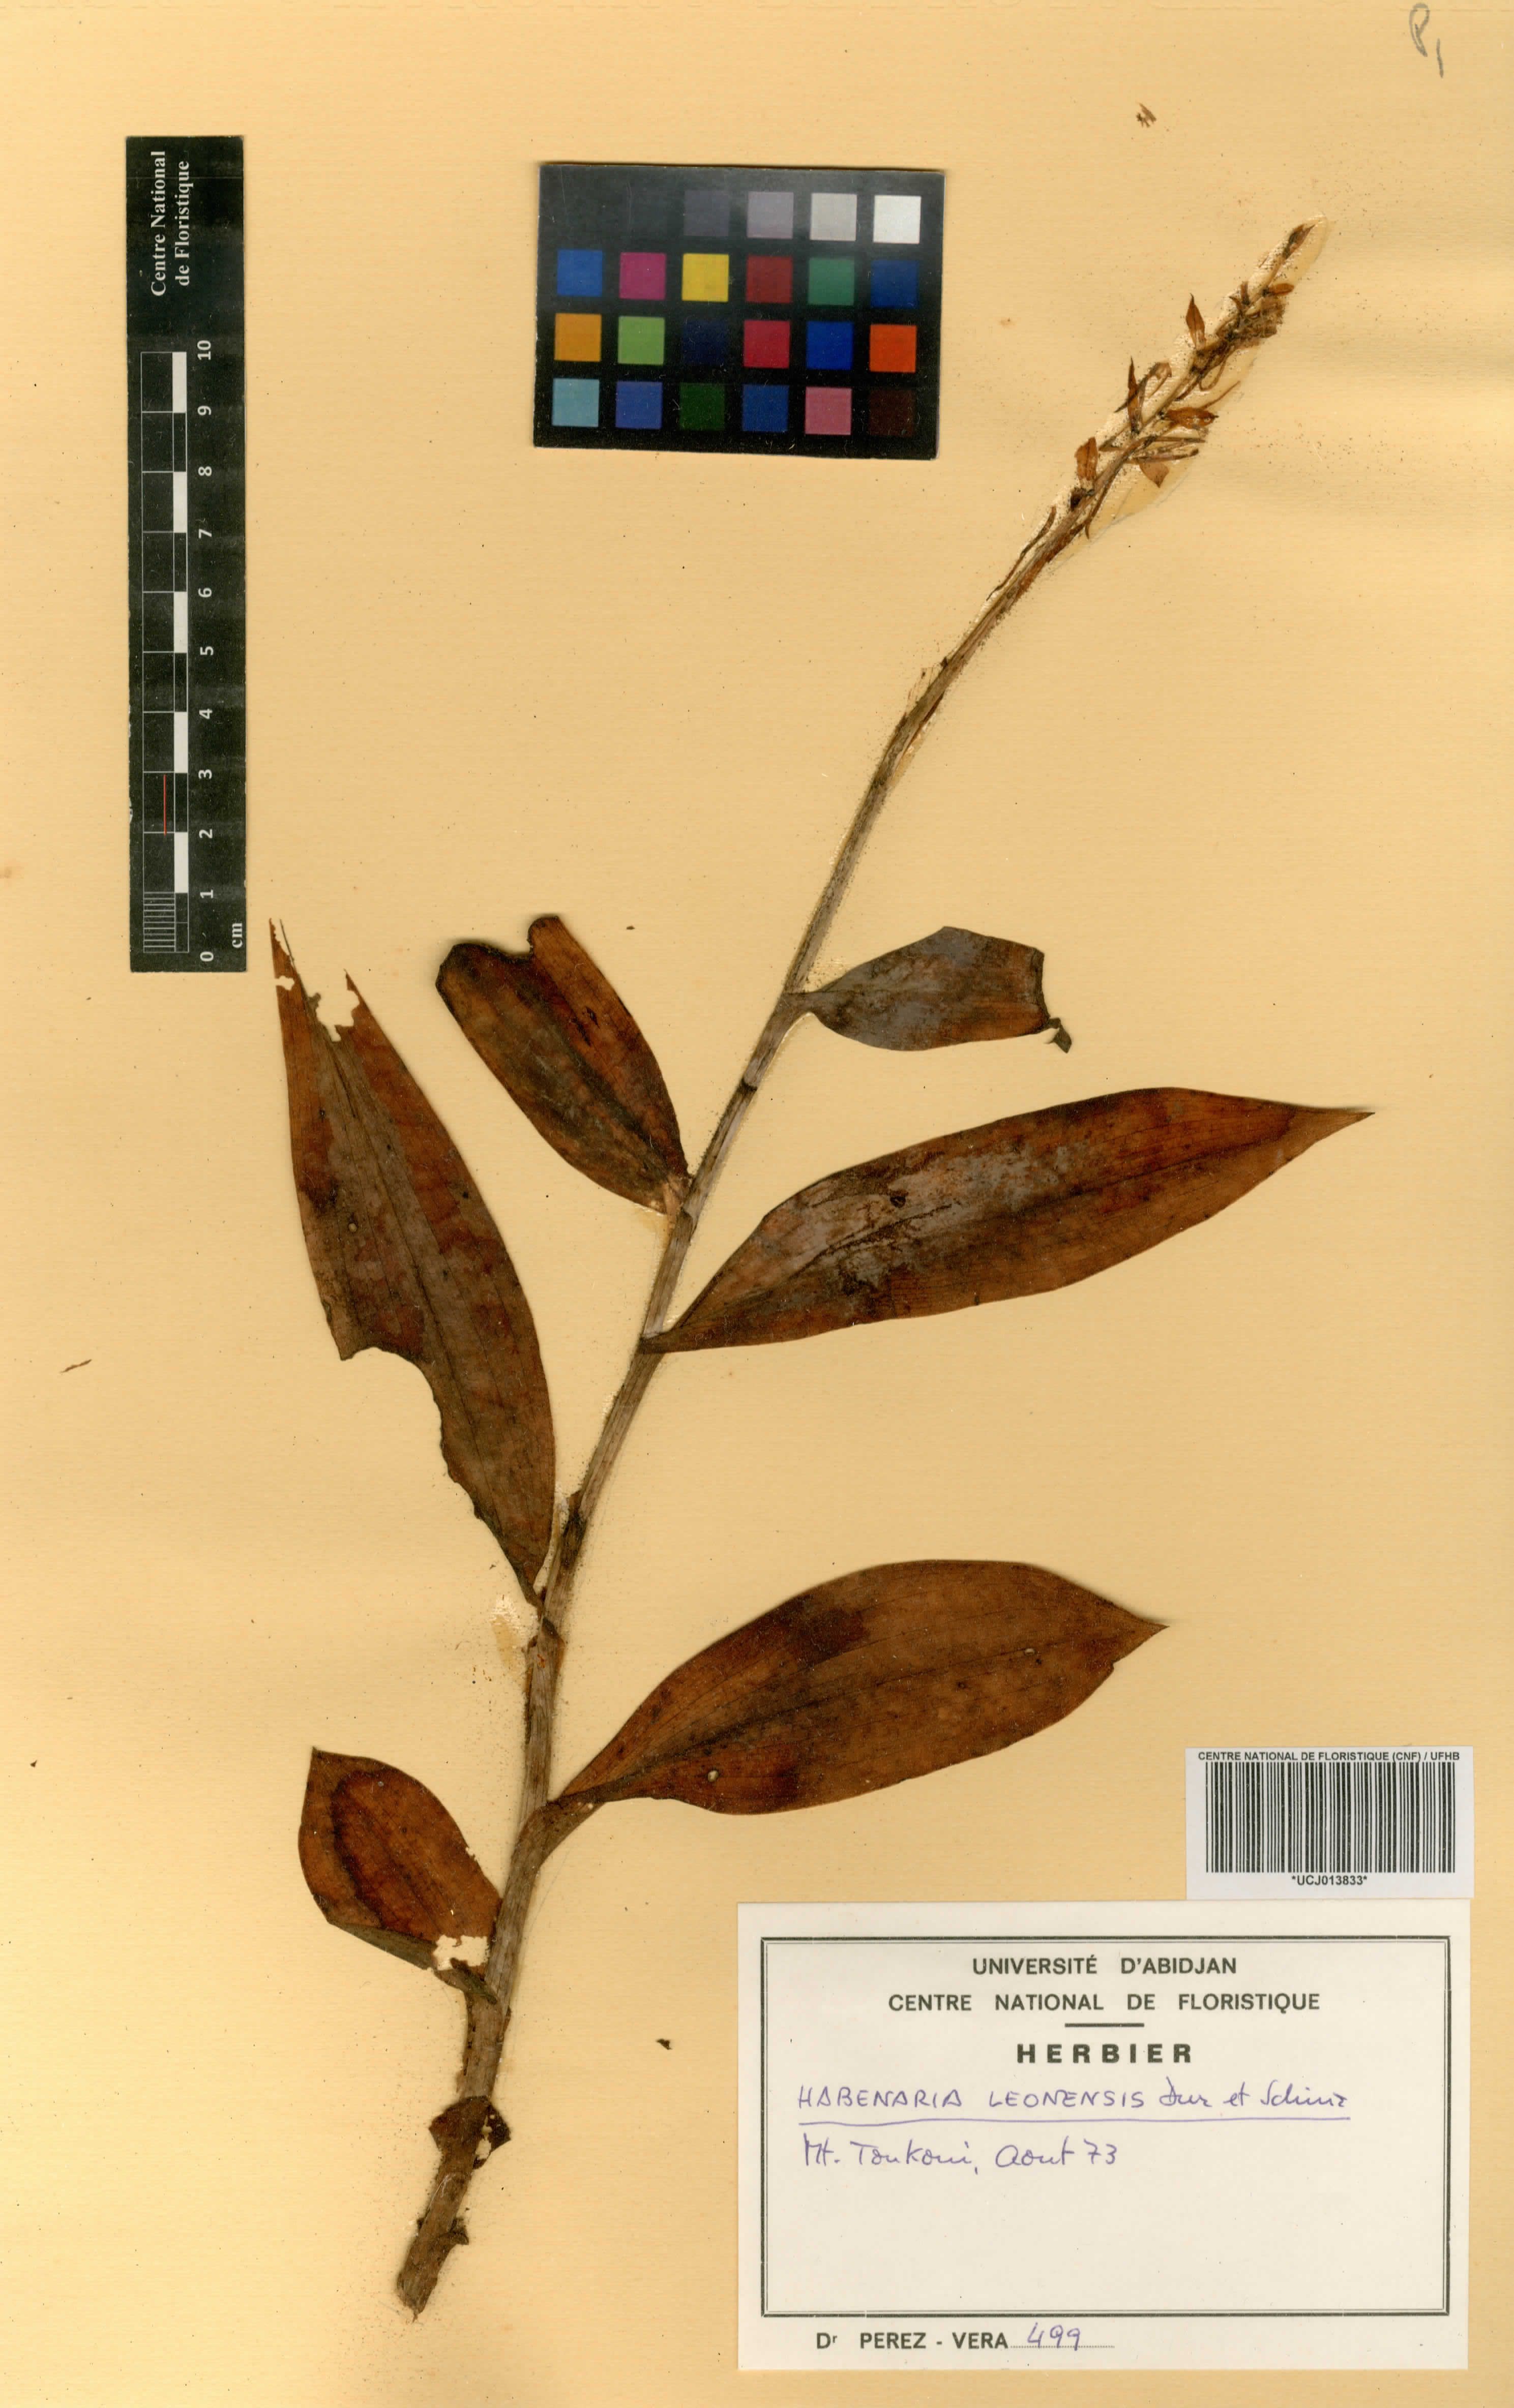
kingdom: Plantae
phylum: Tracheophyta
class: Liliopsida
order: Asparagales
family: Orchidaceae
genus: Habenaria
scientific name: Habenaria leonensis
